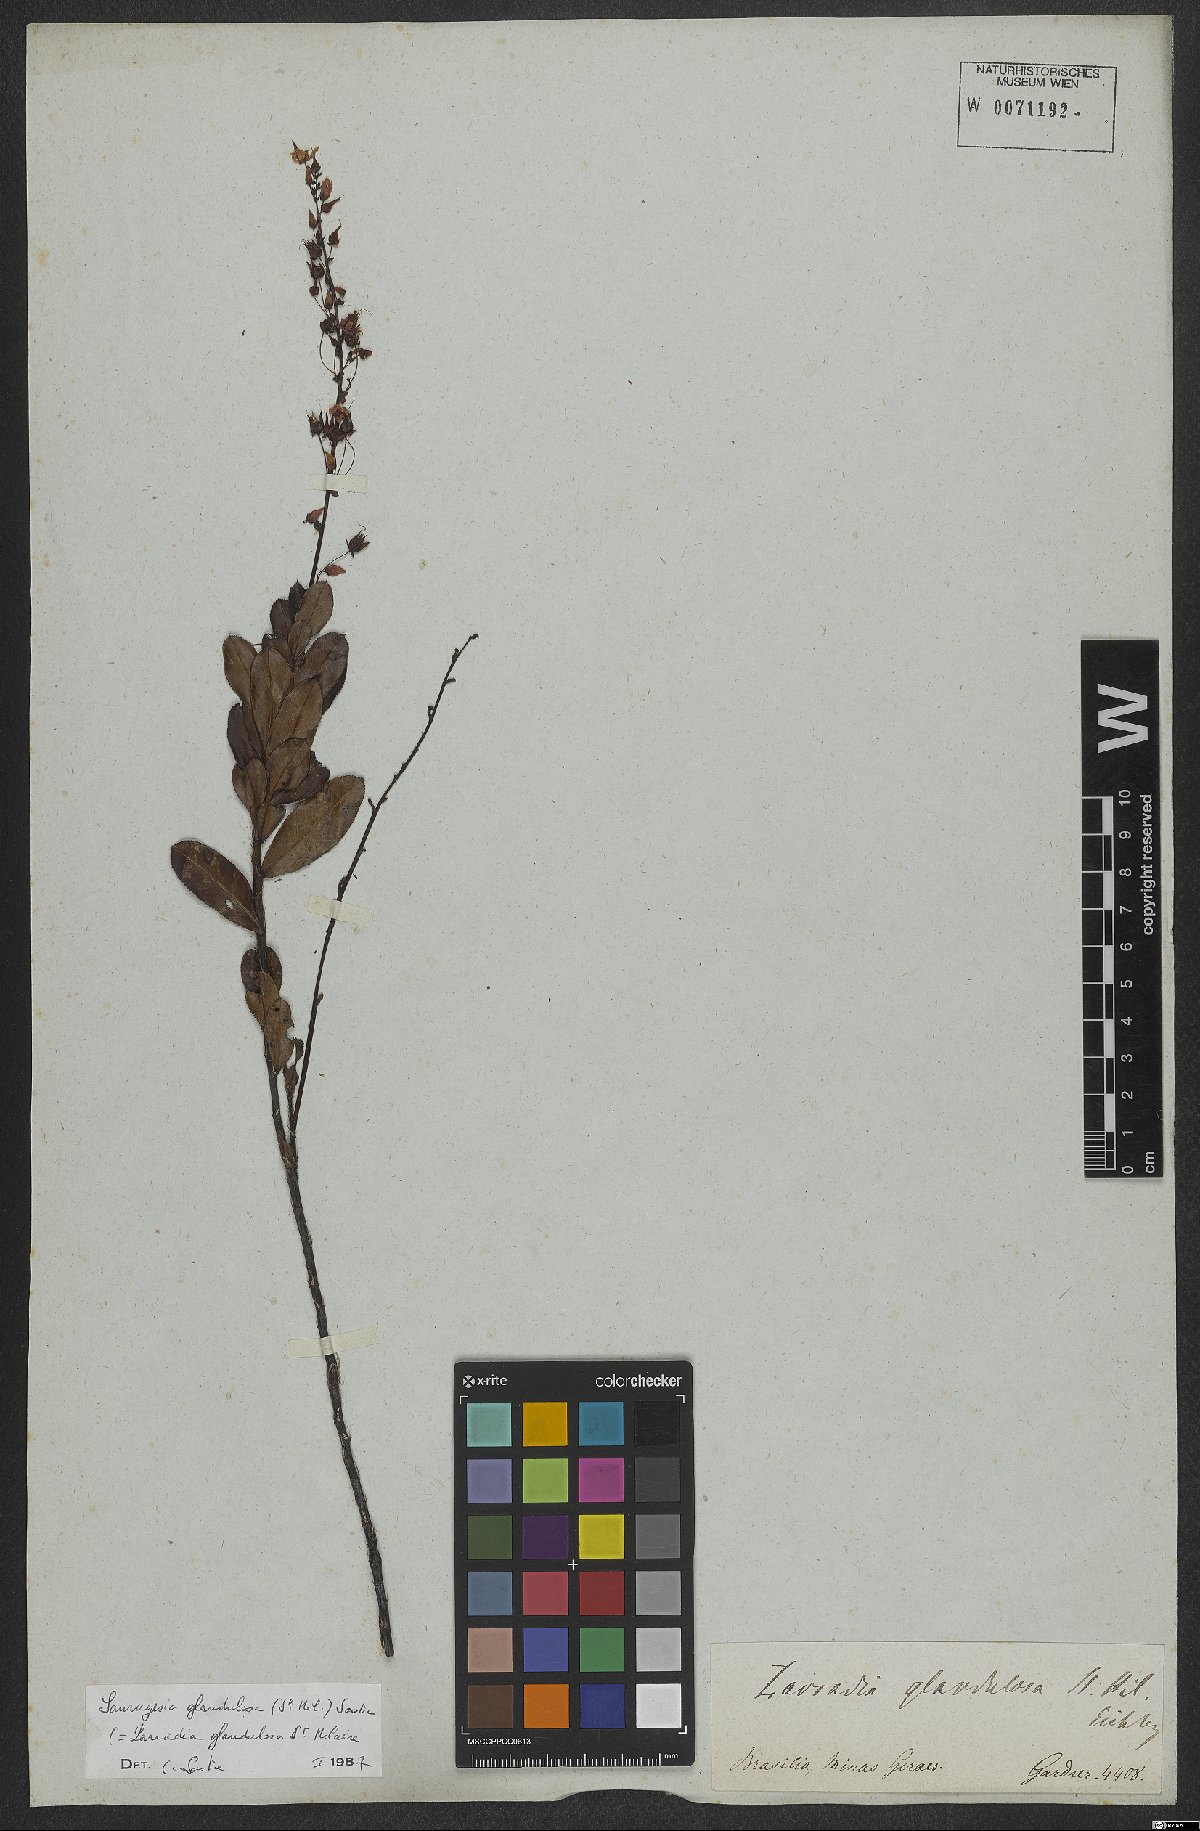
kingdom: Plantae
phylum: Tracheophyta
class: Magnoliopsida
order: Malpighiales
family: Ochnaceae
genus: Sauvagesia
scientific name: Sauvagesia glandulosa
